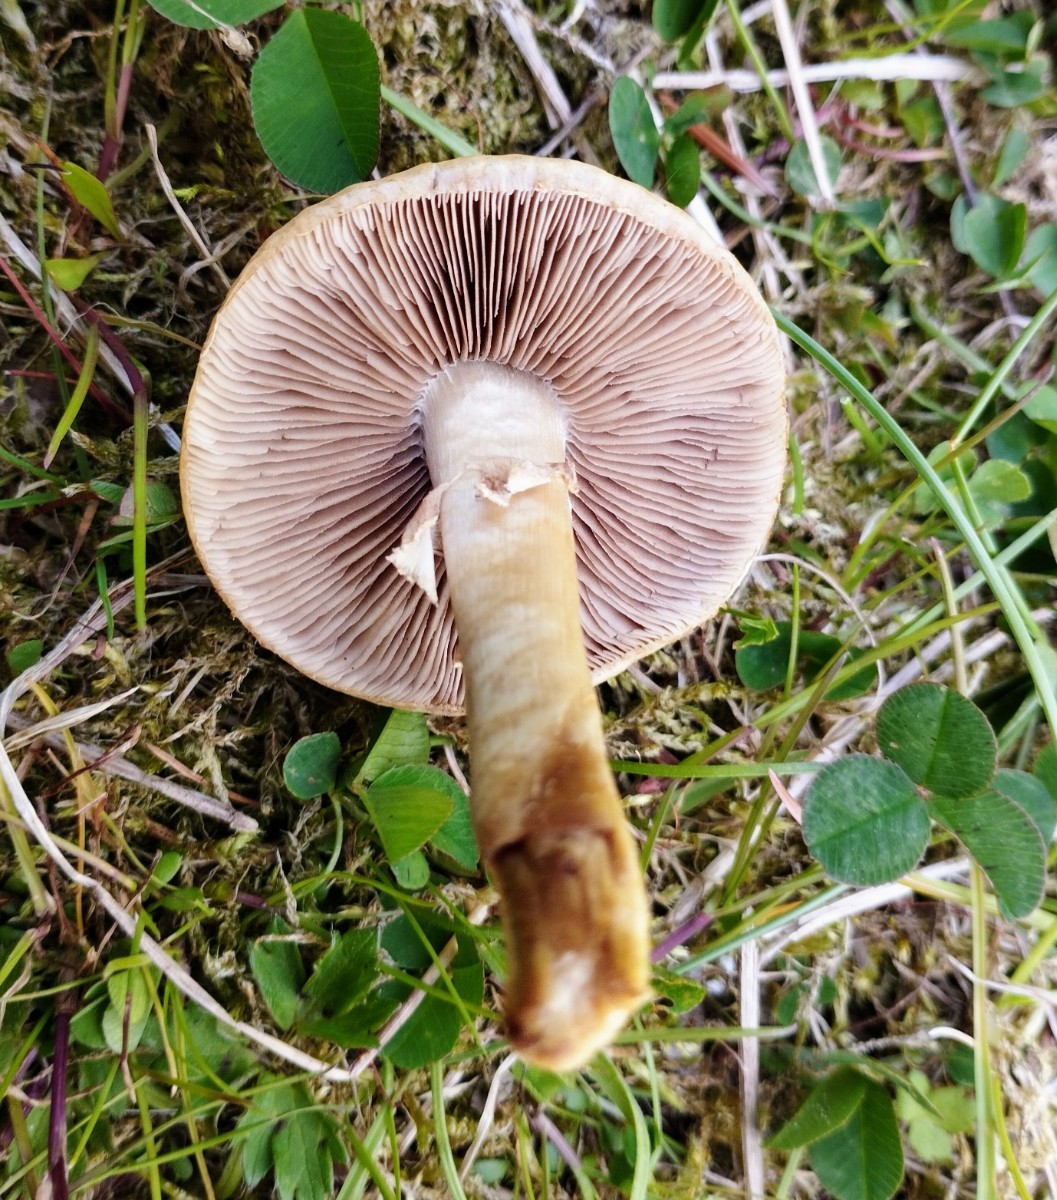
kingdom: Fungi
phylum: Basidiomycota
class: Agaricomycetes
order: Agaricales
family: Strophariaceae
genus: Agrocybe
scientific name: Agrocybe praecox
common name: tidlig agerhat
